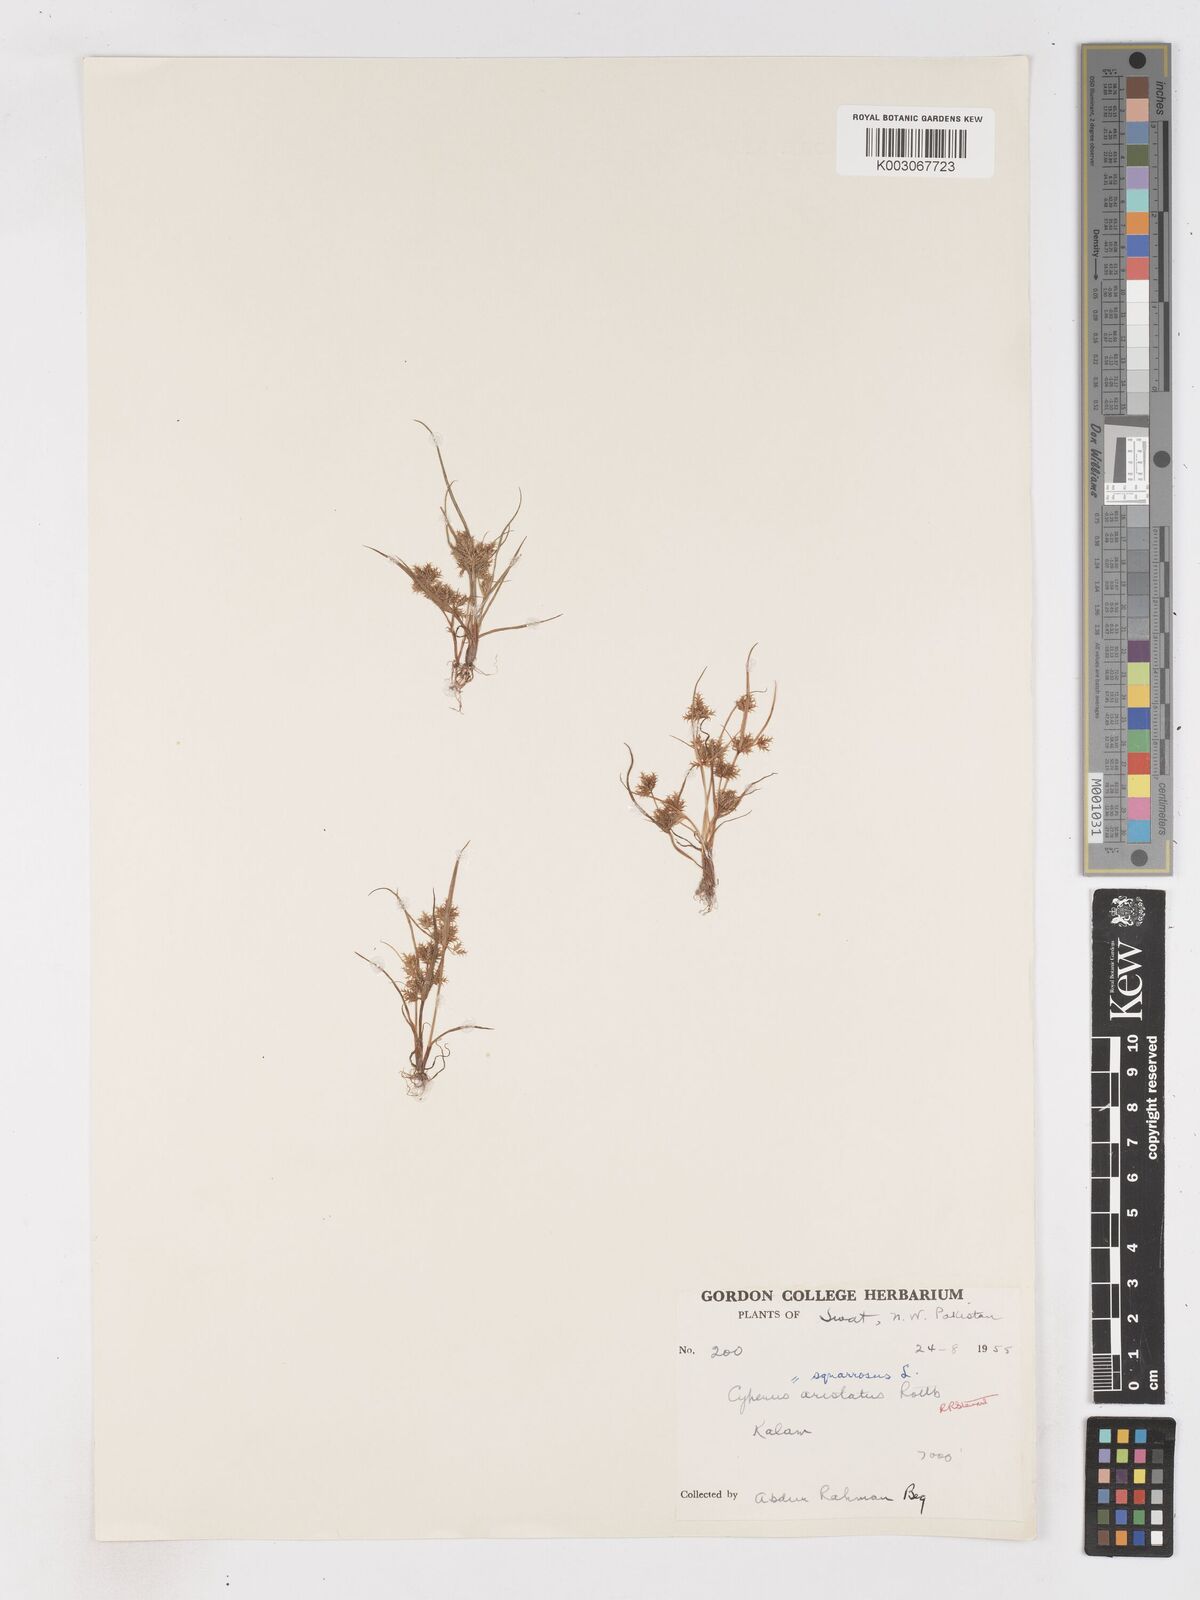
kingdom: Plantae
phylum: Tracheophyta
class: Liliopsida
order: Poales
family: Cyperaceae
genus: Cyperus
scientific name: Cyperus squarrosus
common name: Awned cyperus
